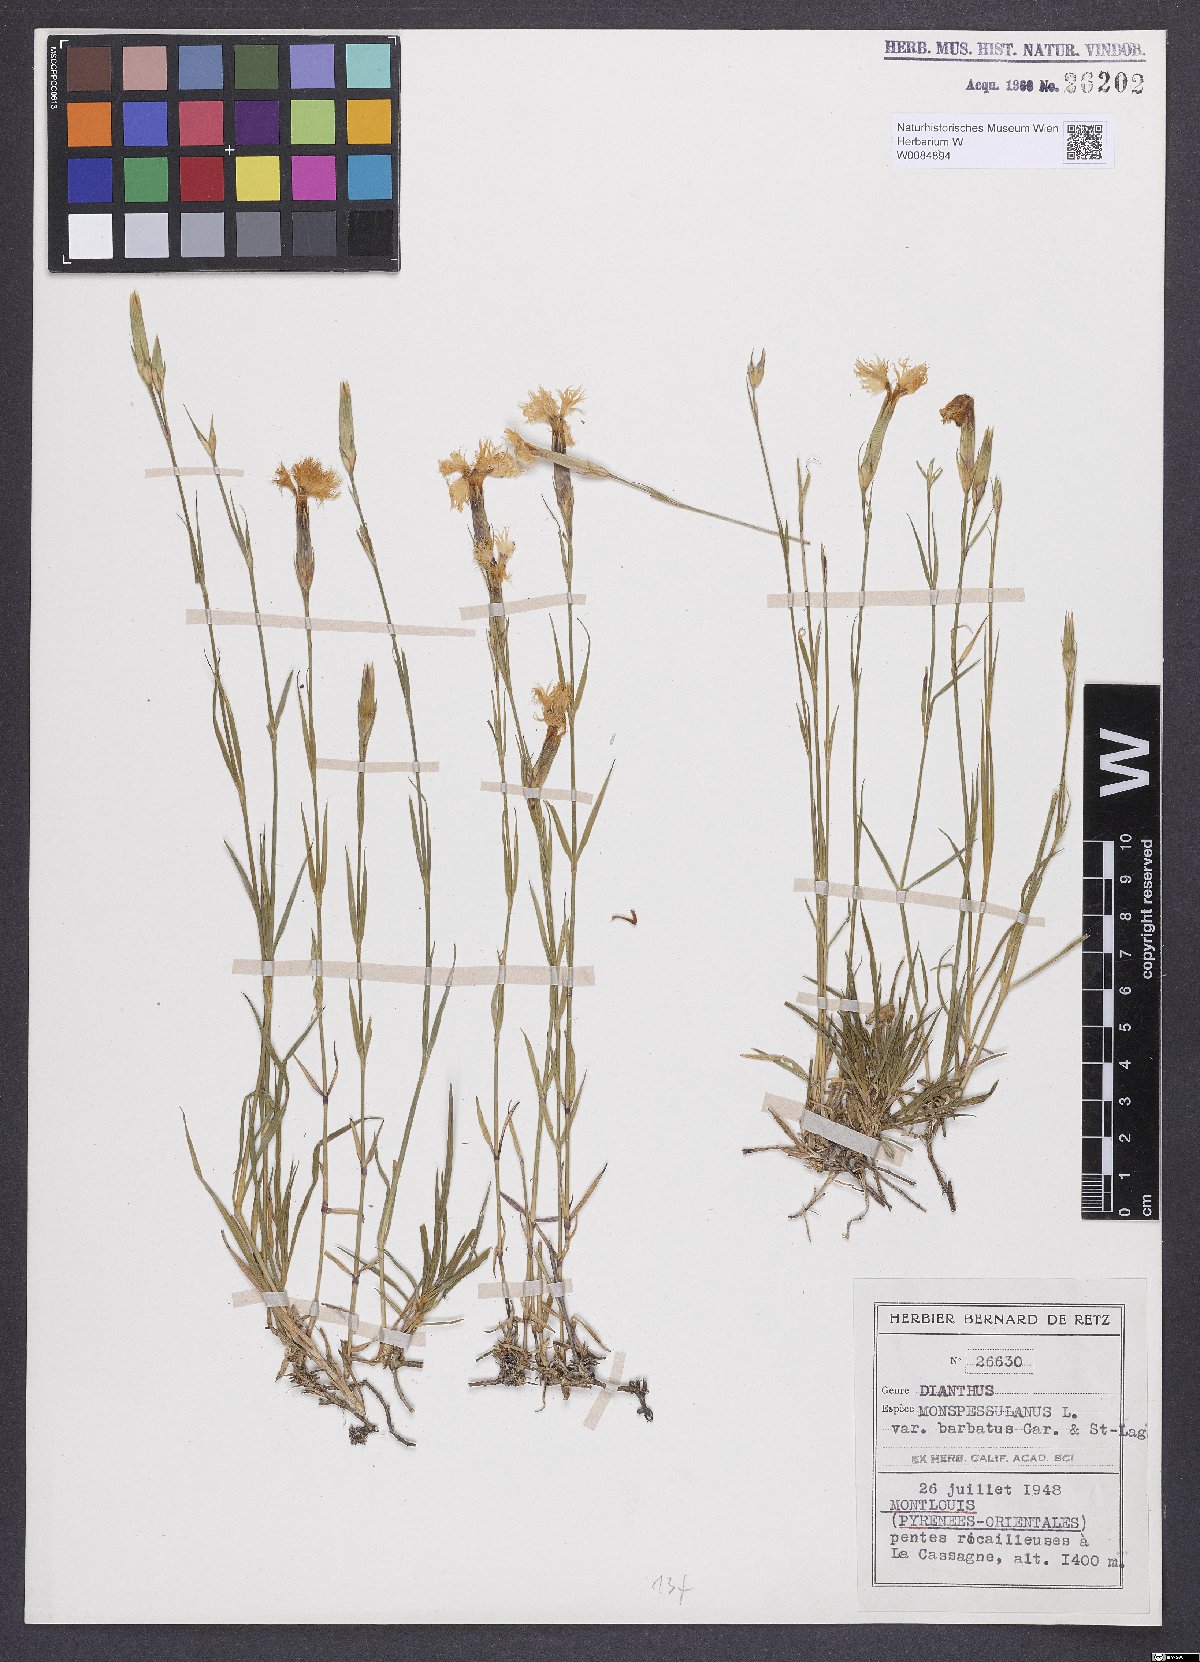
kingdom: Plantae
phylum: Tracheophyta
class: Magnoliopsida
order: Caryophyllales
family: Caryophyllaceae
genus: Dianthus
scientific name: Dianthus hyssopifolius
